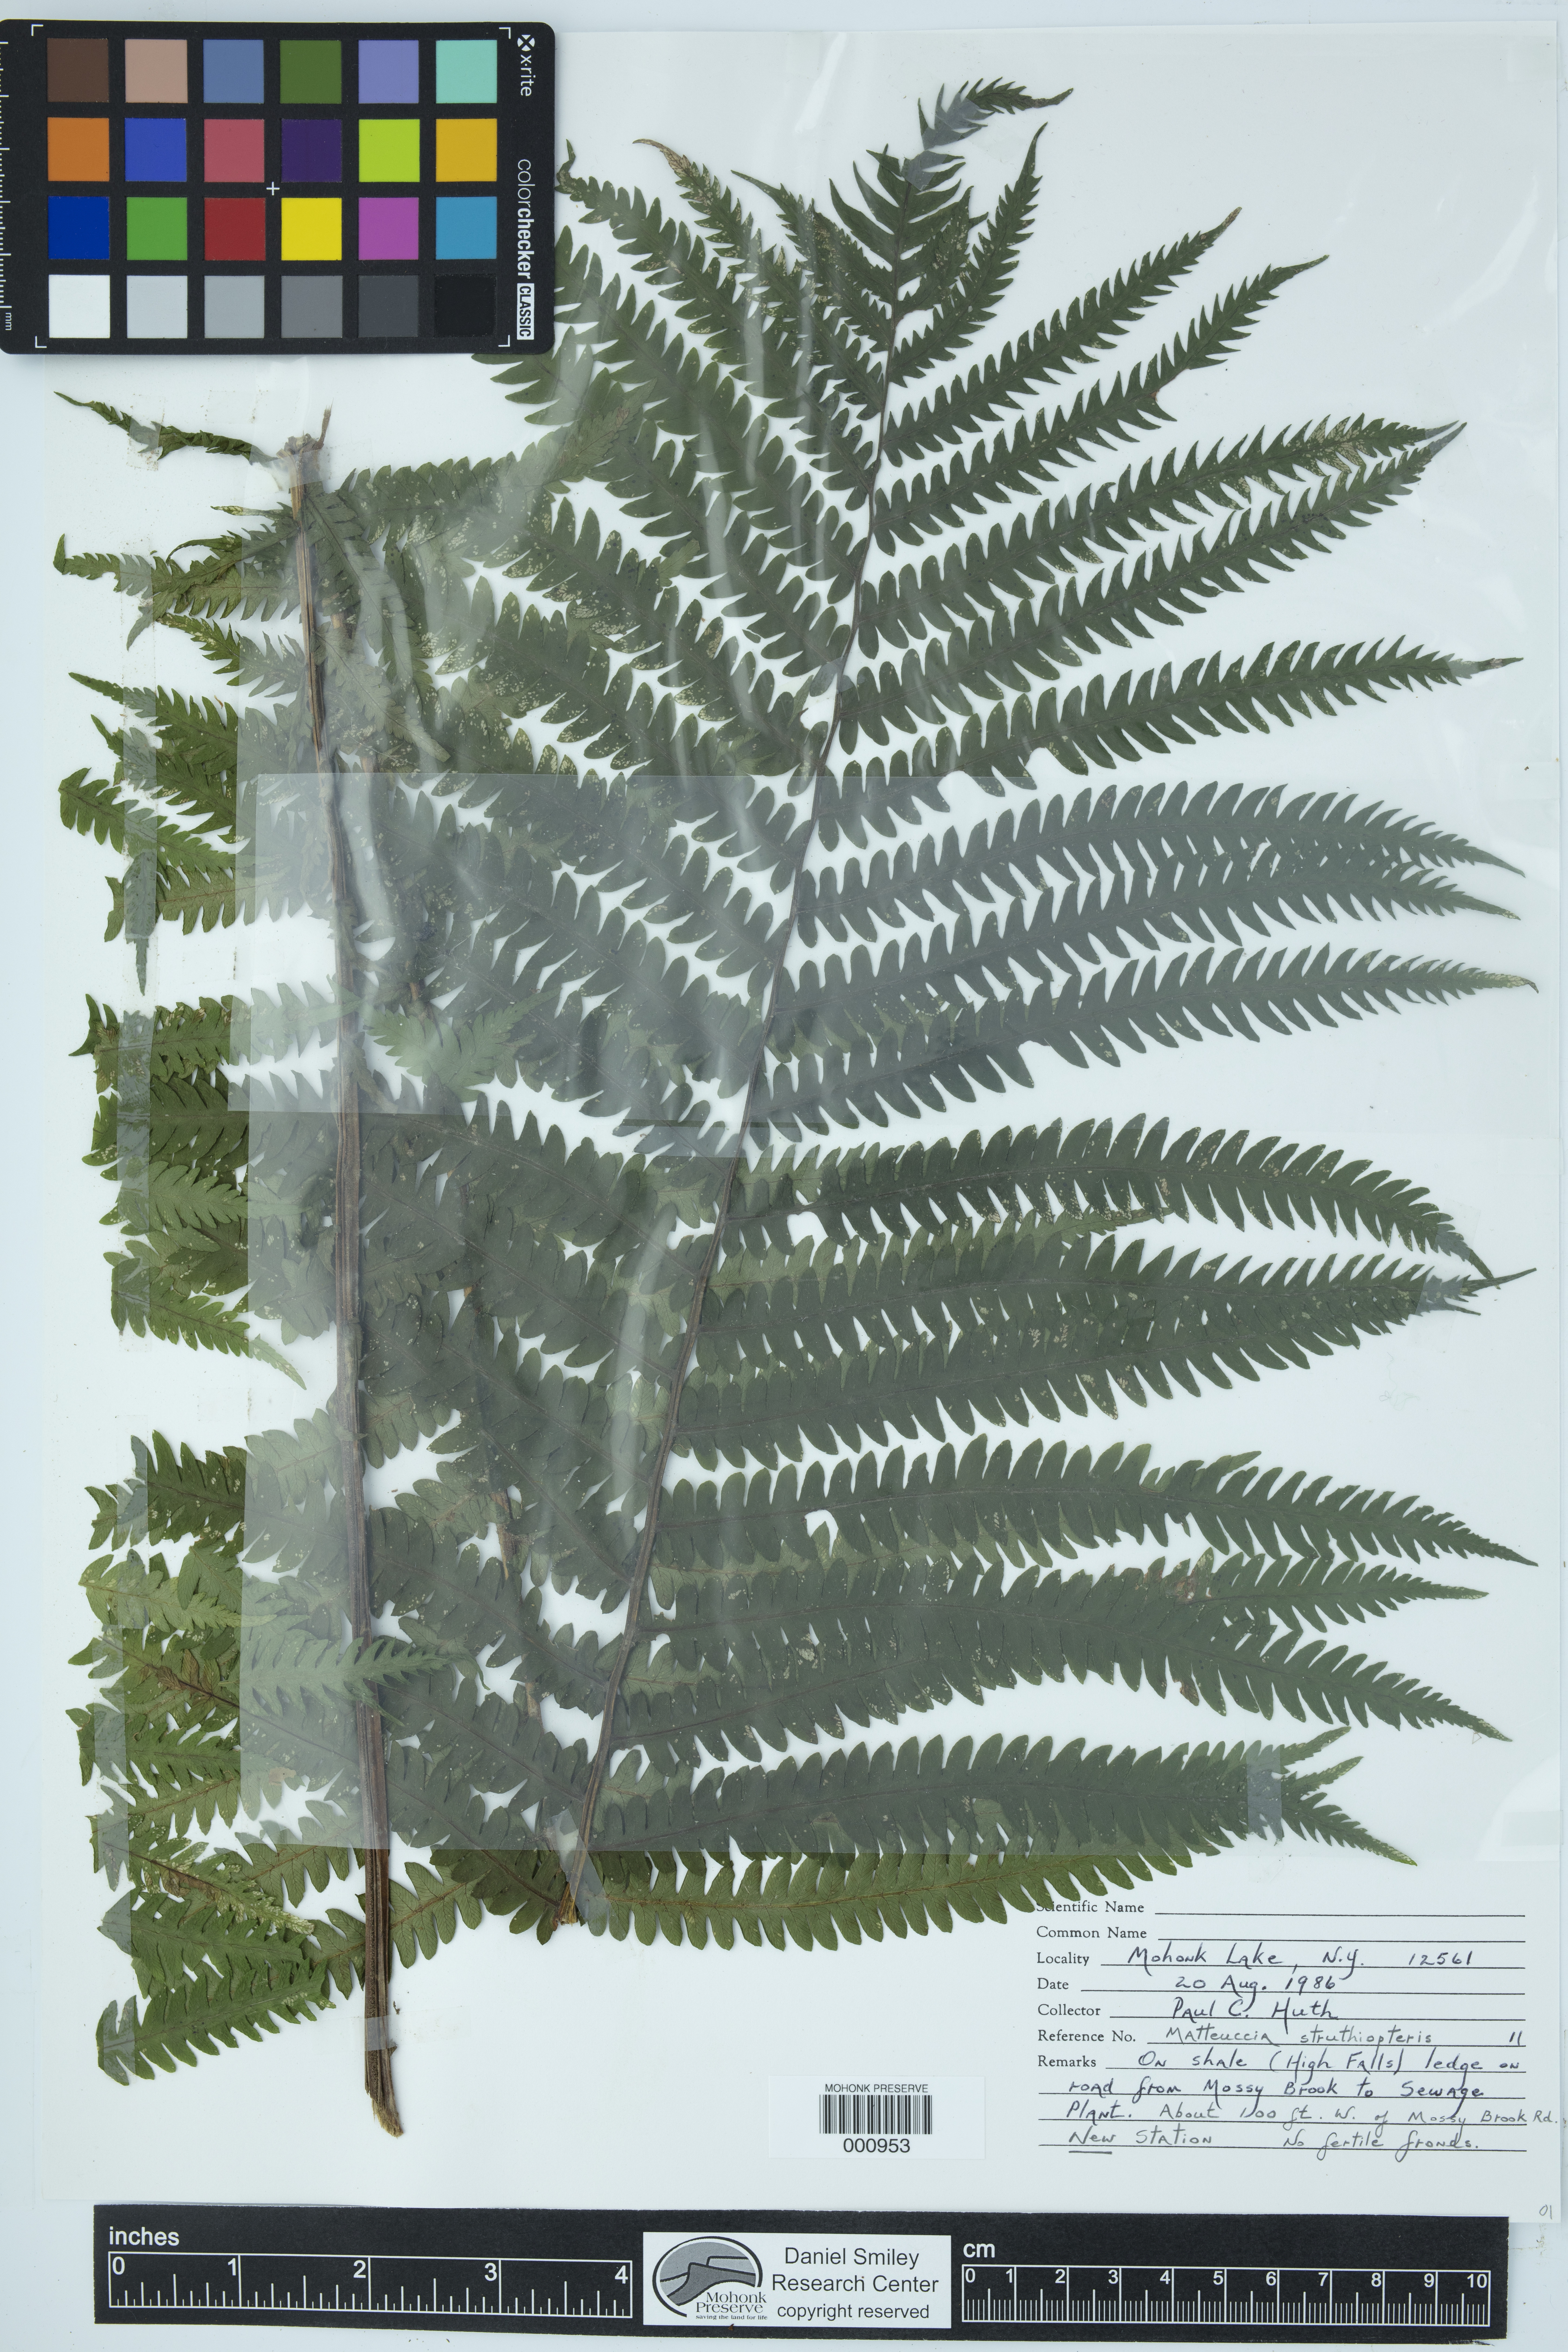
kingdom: Plantae
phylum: Tracheophyta
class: Polypodiopsida
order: Polypodiales
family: Onocleaceae
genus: Matteuccia
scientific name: Matteuccia struthiopteris
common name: Ostrich fern
